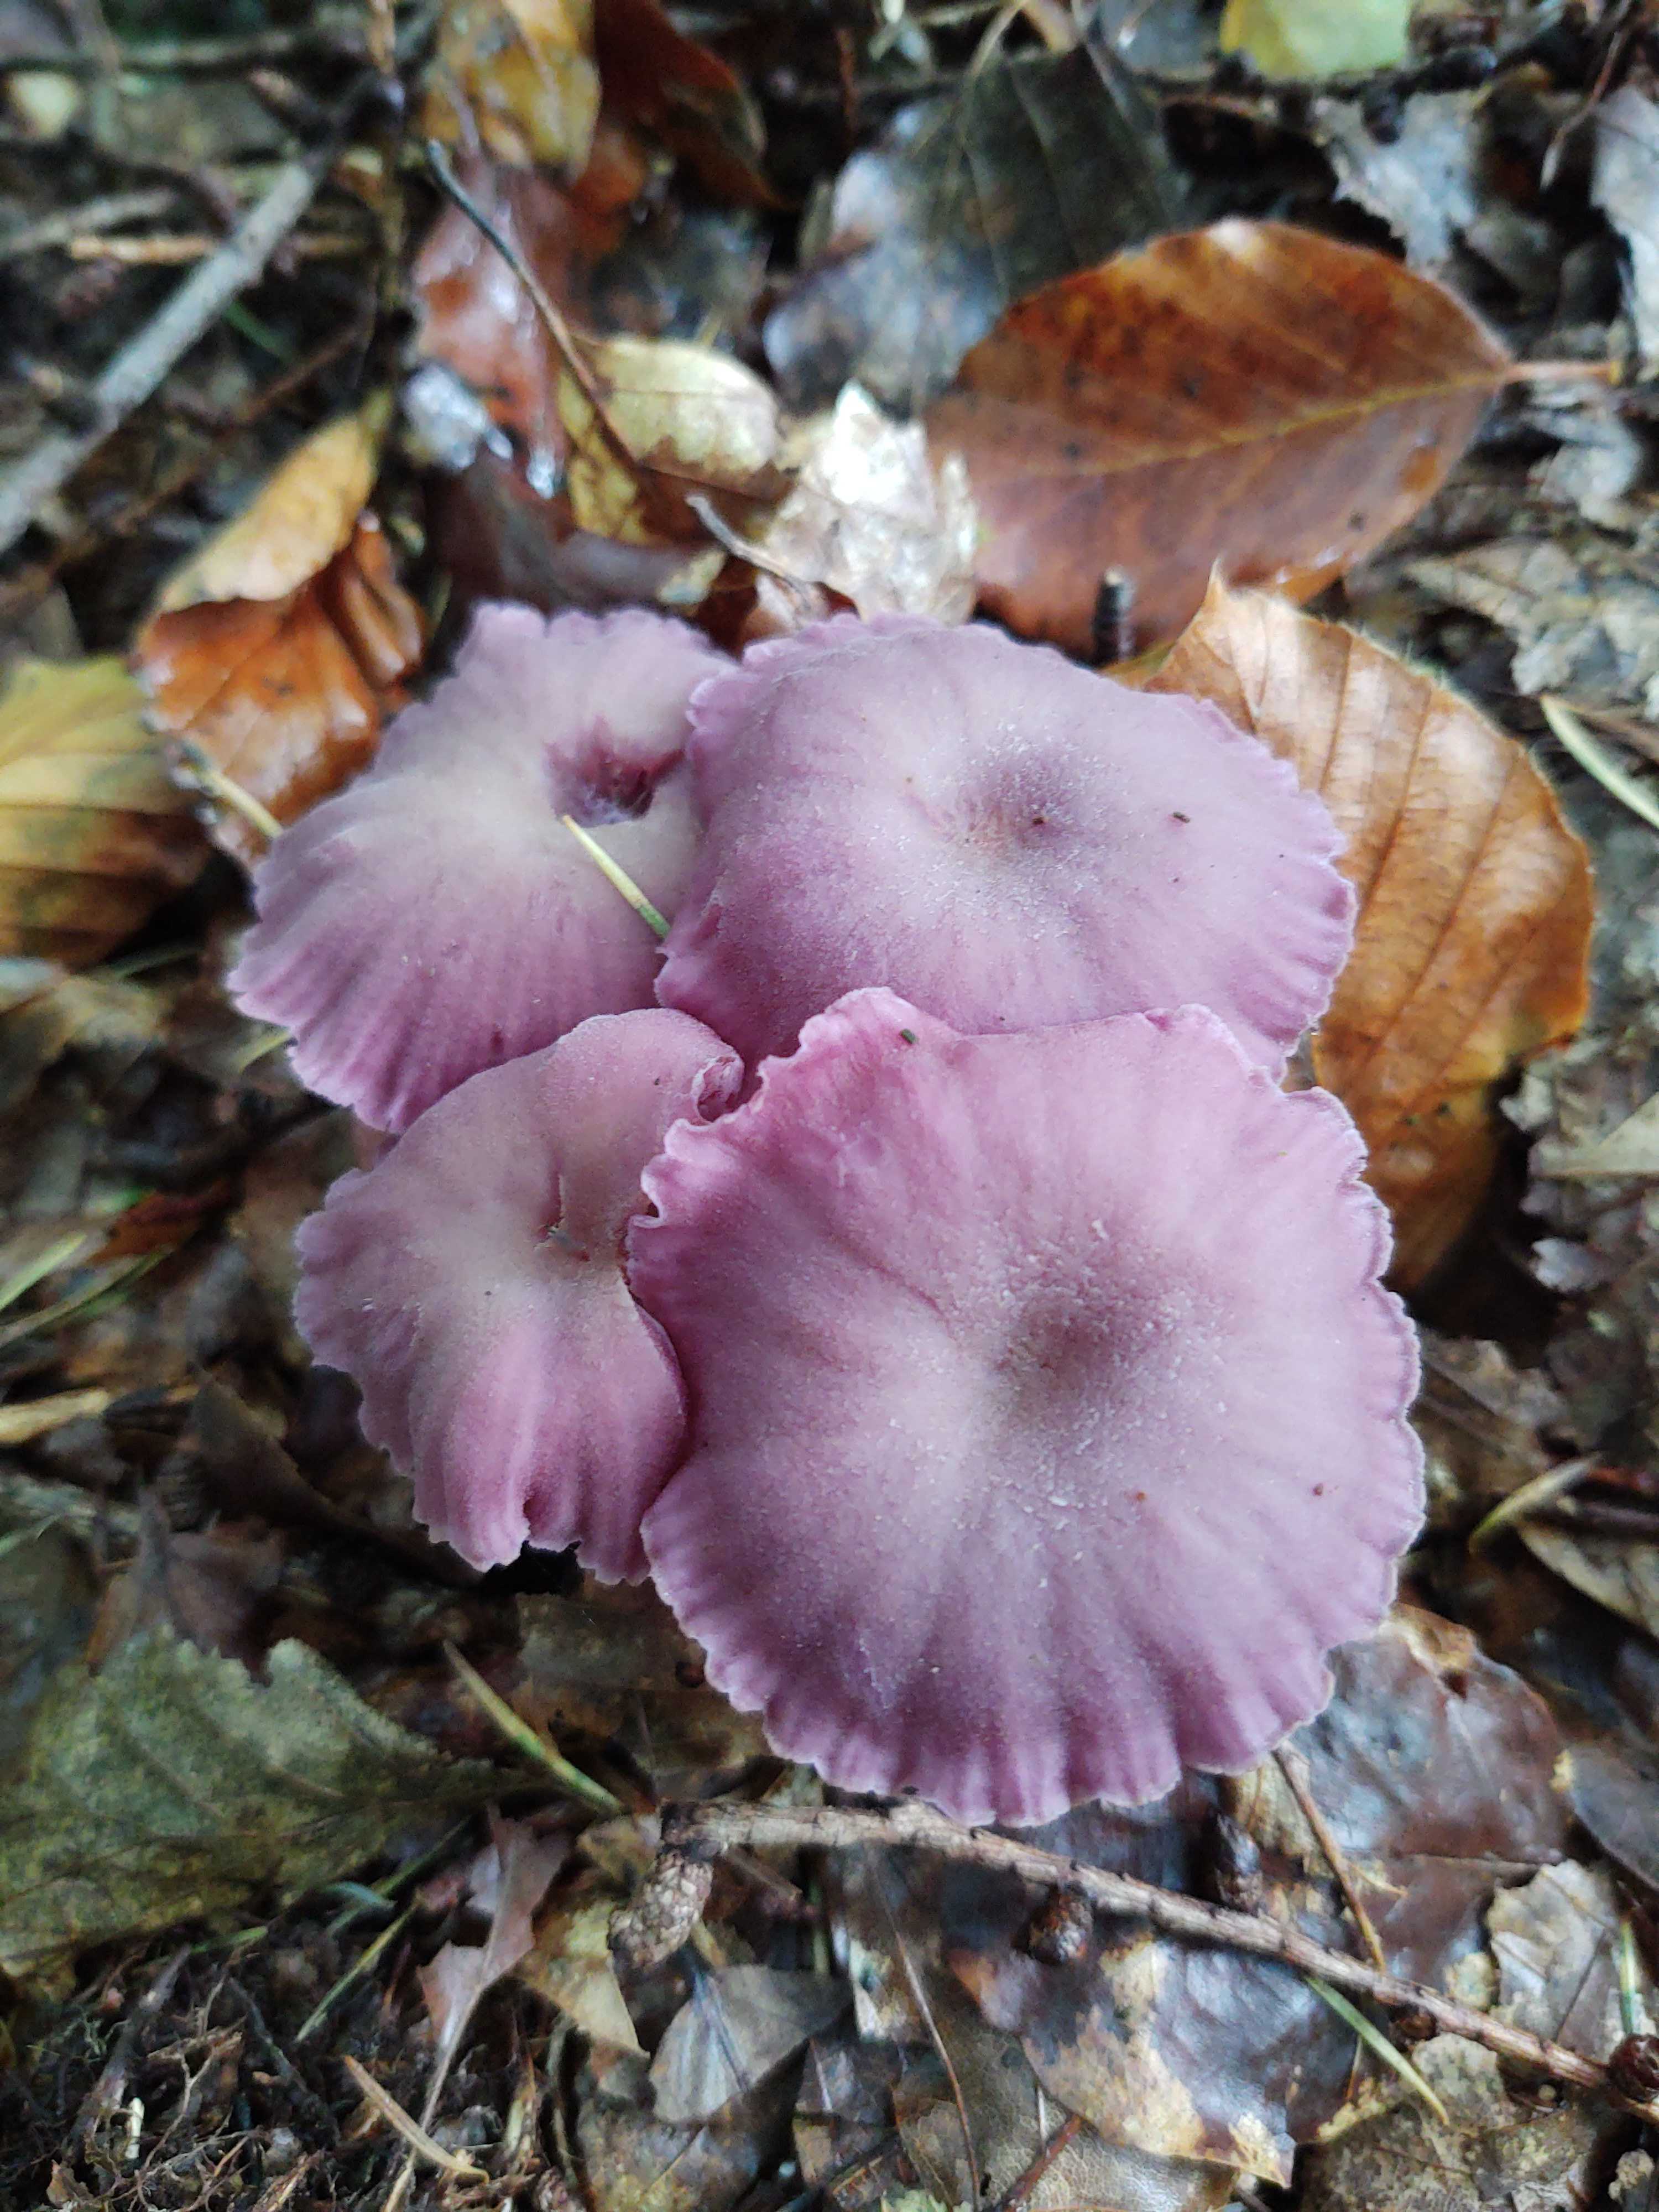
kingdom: Fungi
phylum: Basidiomycota
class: Agaricomycetes
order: Agaricales
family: Hydnangiaceae
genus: Laccaria
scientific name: Laccaria amethystina
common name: violet ametysthat
